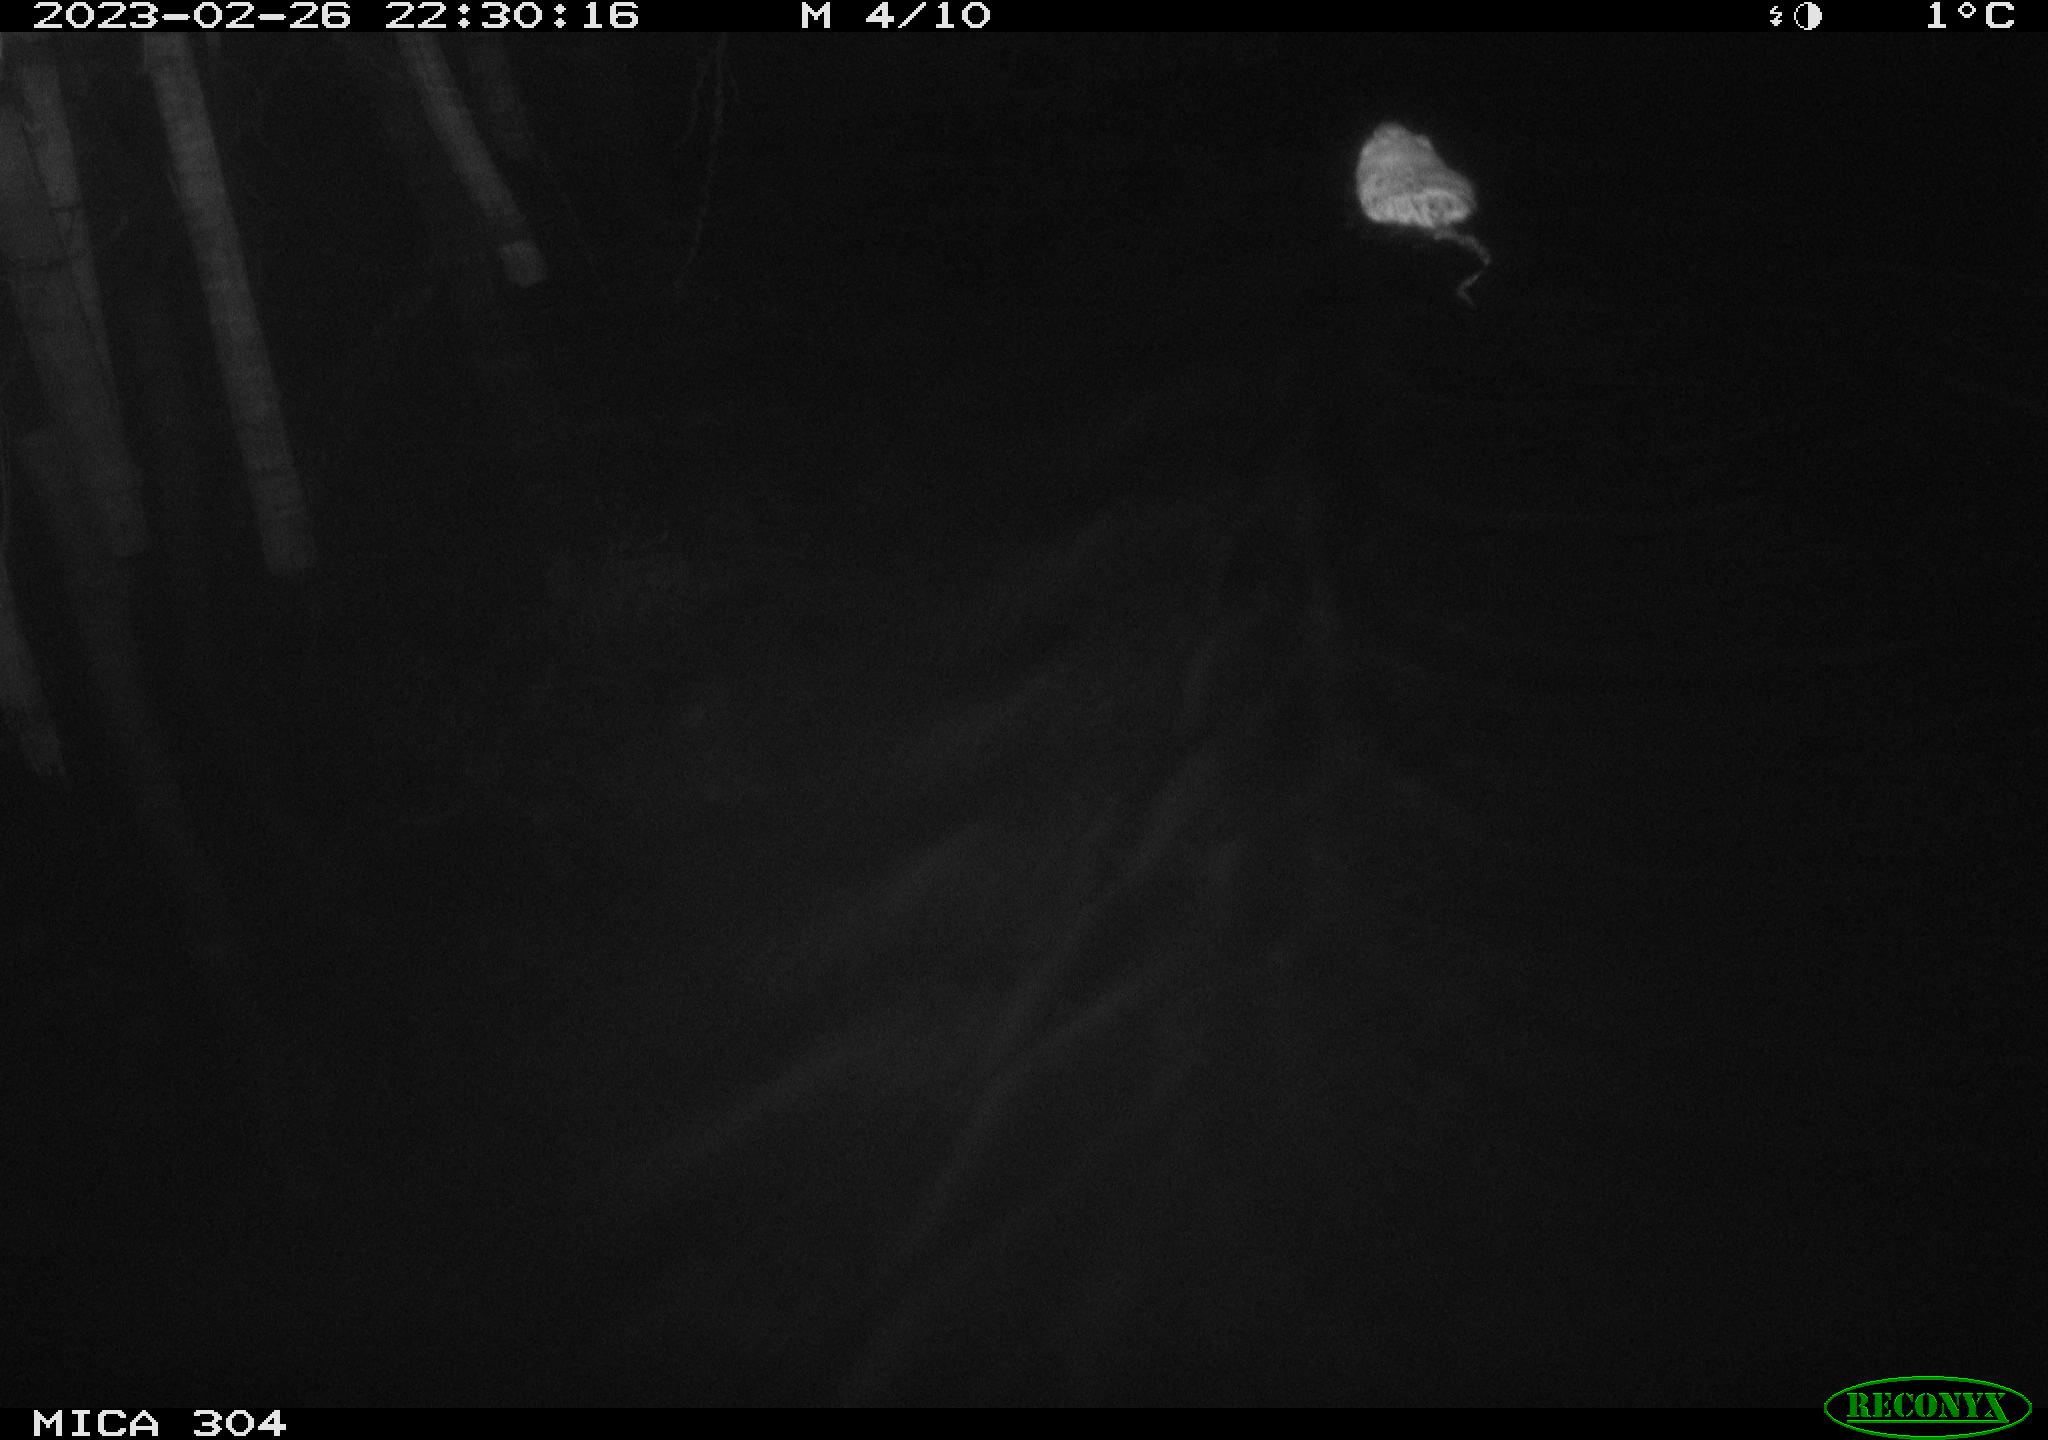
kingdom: Animalia
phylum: Chordata
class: Mammalia
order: Rodentia
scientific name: Rodentia
